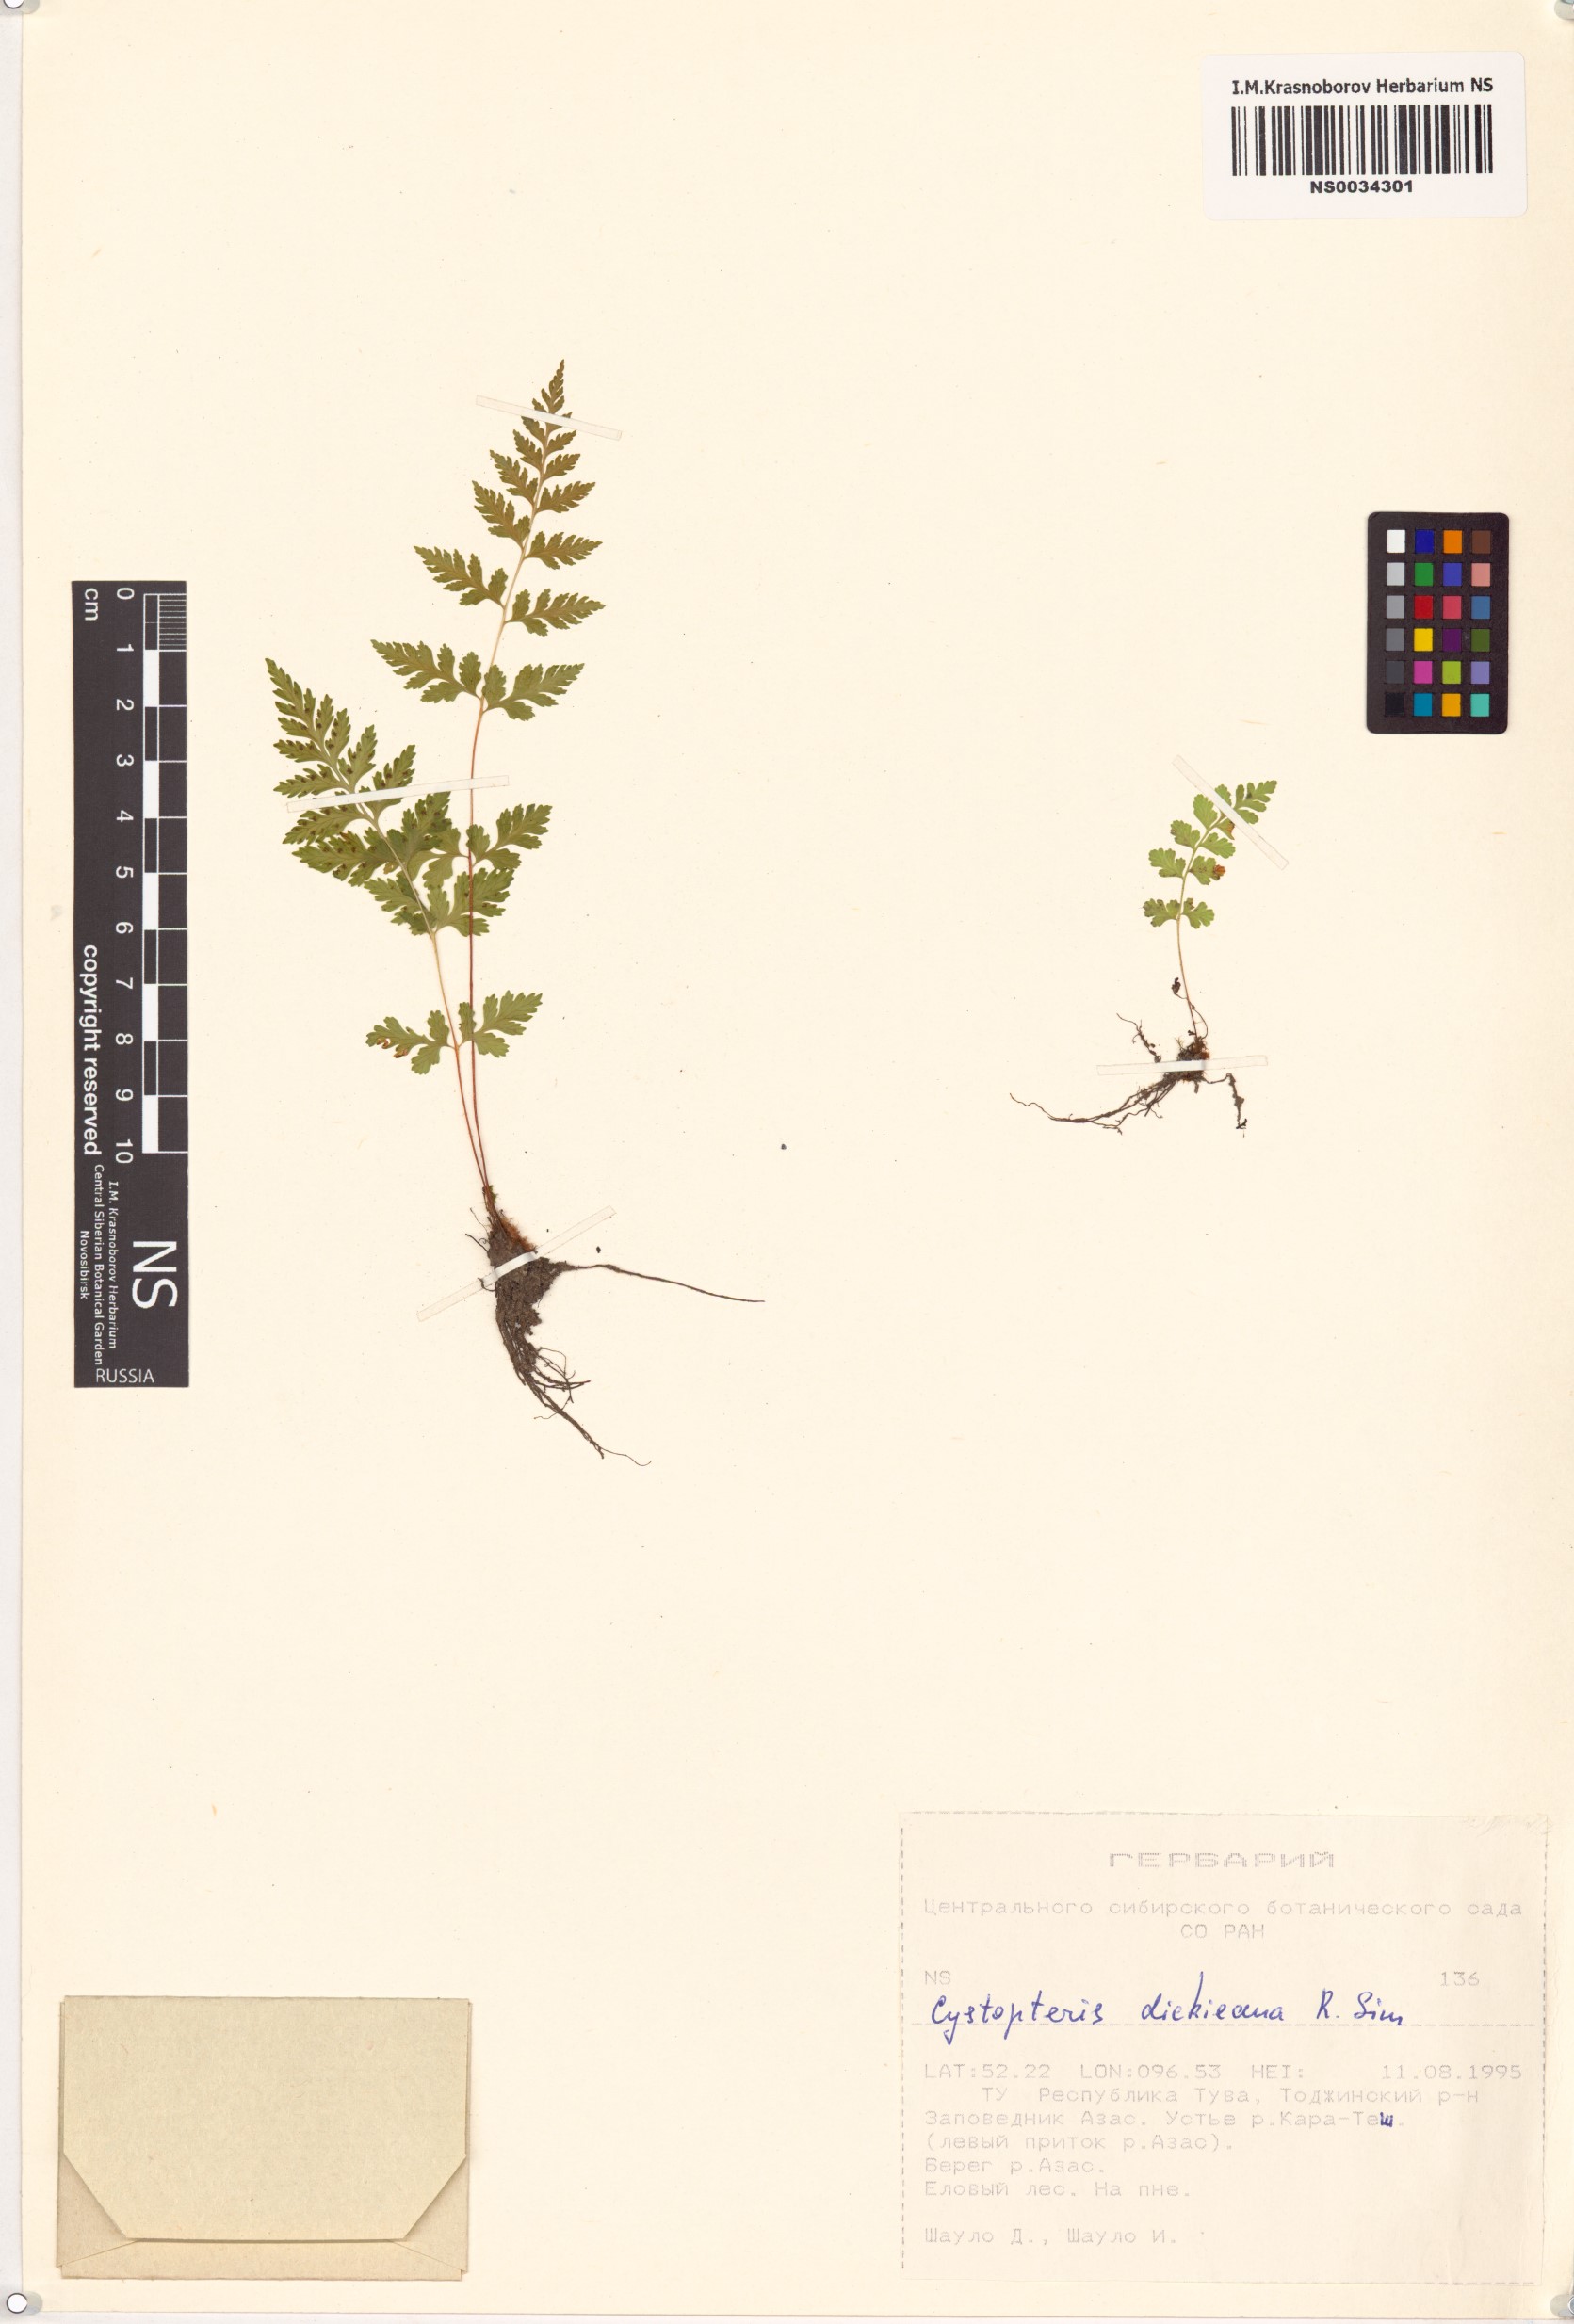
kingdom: Plantae
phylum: Tracheophyta
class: Polypodiopsida
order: Polypodiales
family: Cystopteridaceae
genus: Cystopteris
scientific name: Cystopteris dickieana
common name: Dickie's bladder-fern
